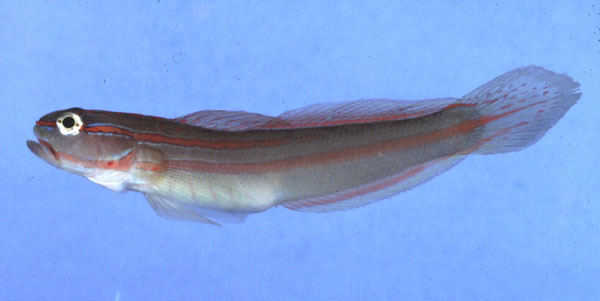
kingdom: Animalia
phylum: Chordata
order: Perciformes
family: Gobiidae
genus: Amblygobius
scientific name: Amblygobius nocturnus
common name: Nocturn goby
